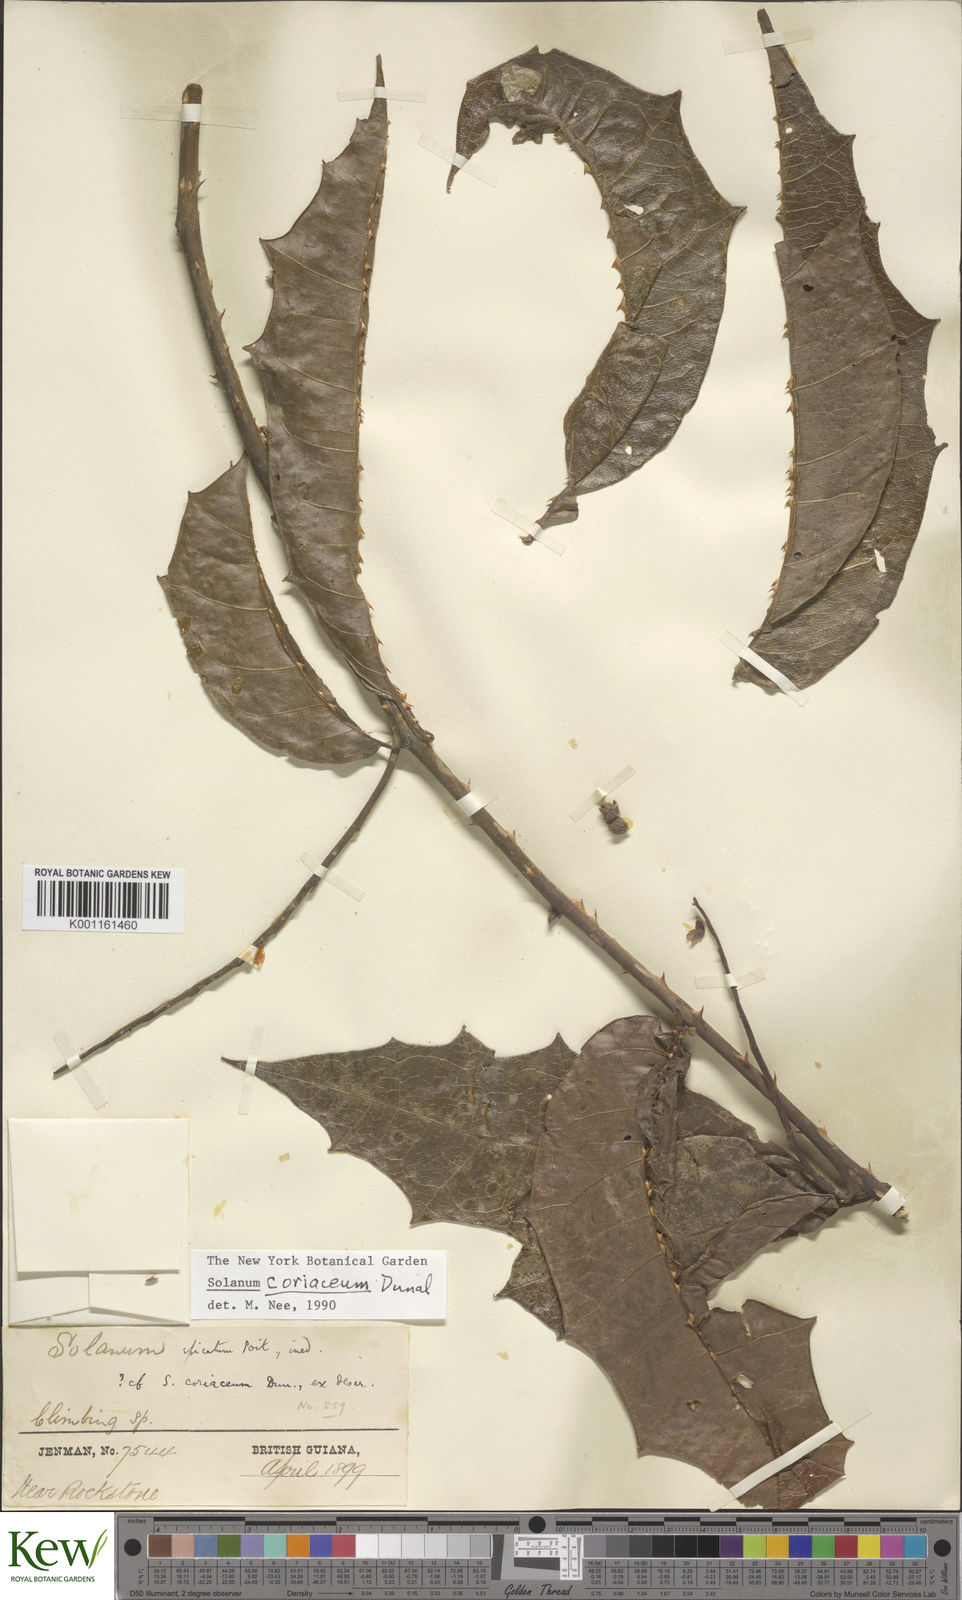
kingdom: Plantae
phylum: Tracheophyta
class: Magnoliopsida
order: Solanales
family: Solanaceae
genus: Solanum
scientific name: Solanum coriaceum
